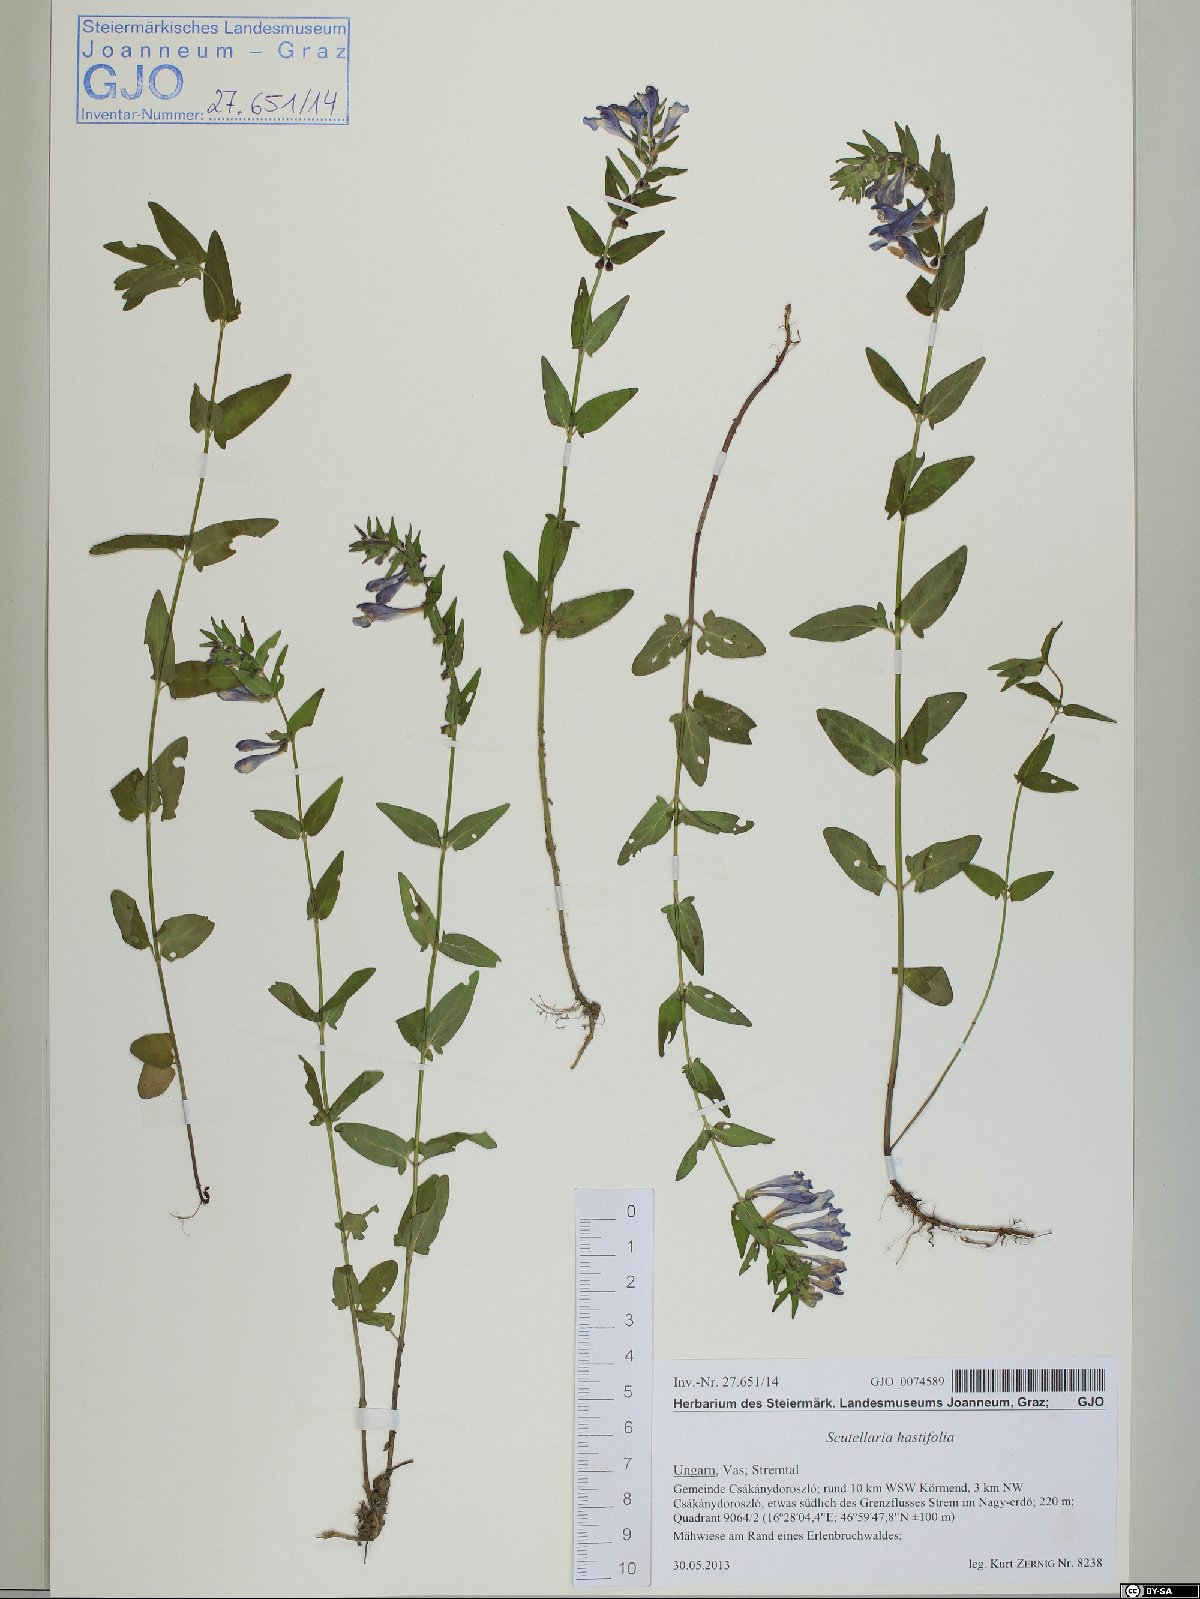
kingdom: Plantae
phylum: Tracheophyta
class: Magnoliopsida
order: Lamiales
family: Lamiaceae
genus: Scutellaria
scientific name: Scutellaria hastifolia
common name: Norfolk skullcap
